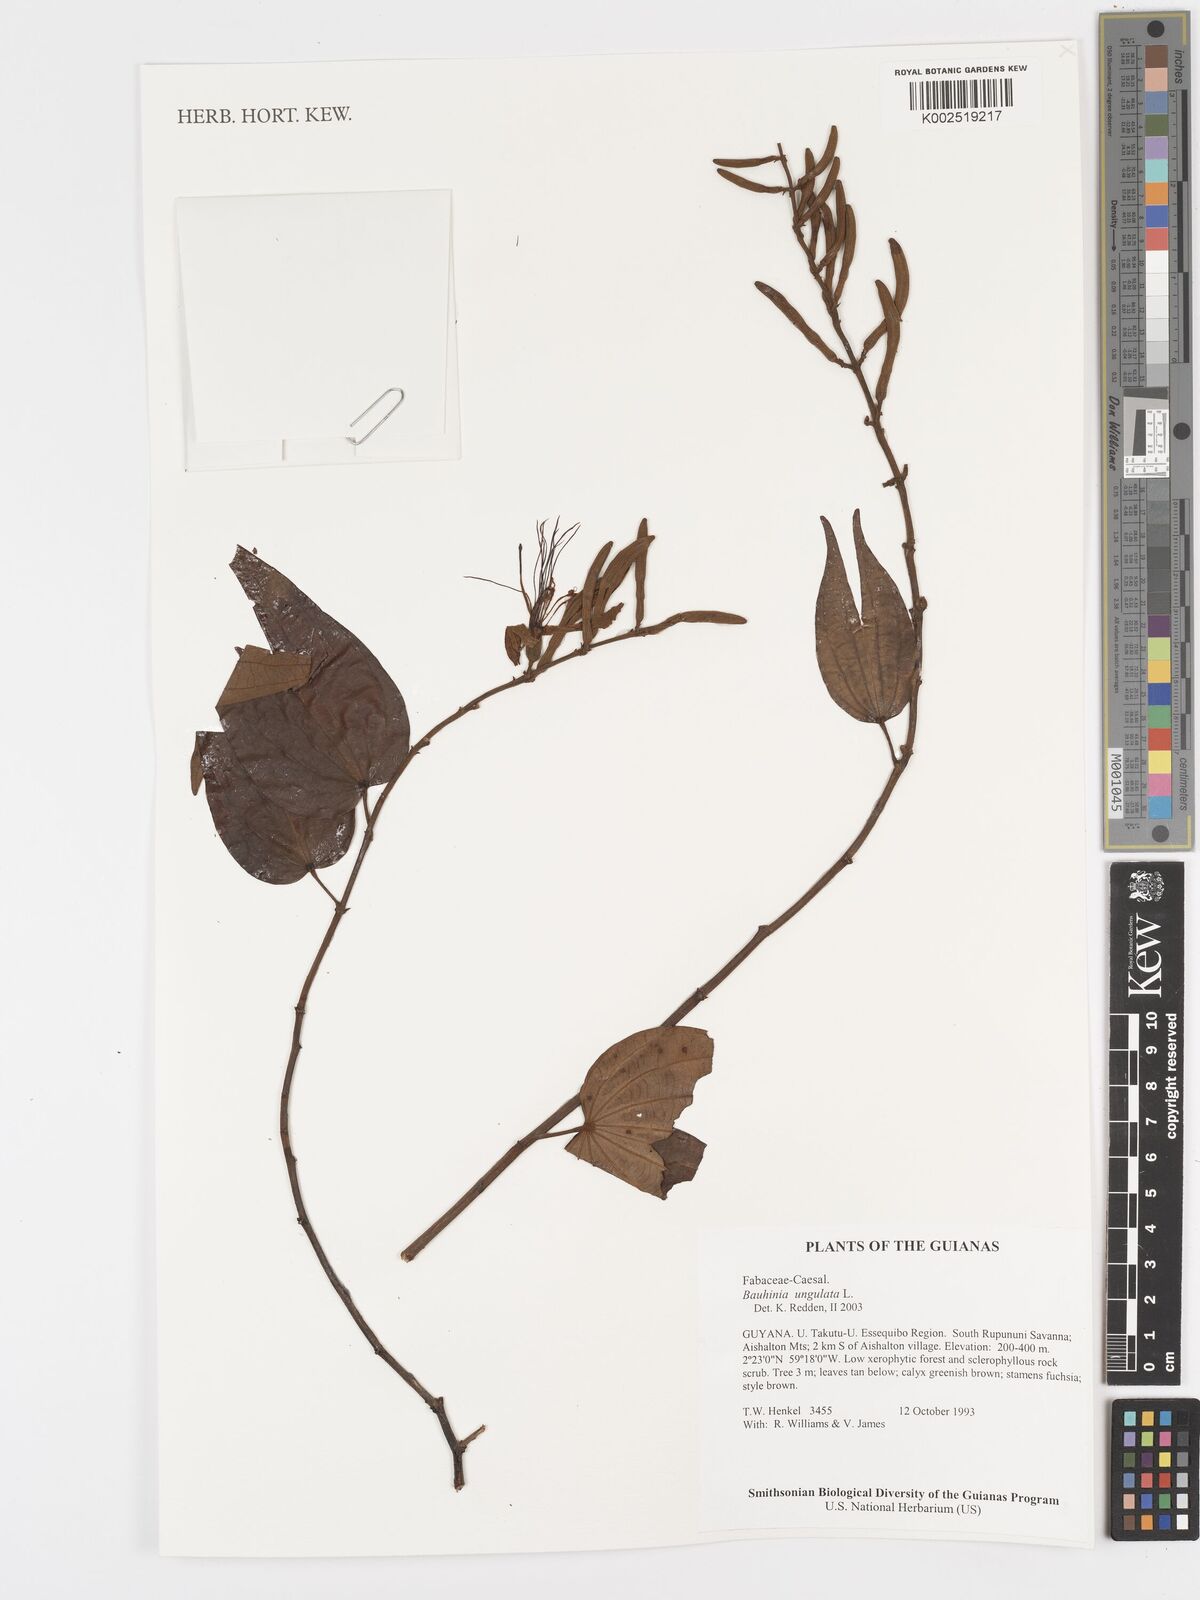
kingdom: Plantae
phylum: Tracheophyta
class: Magnoliopsida
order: Fabales
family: Fabaceae
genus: Bauhinia
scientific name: Bauhinia ungulata
